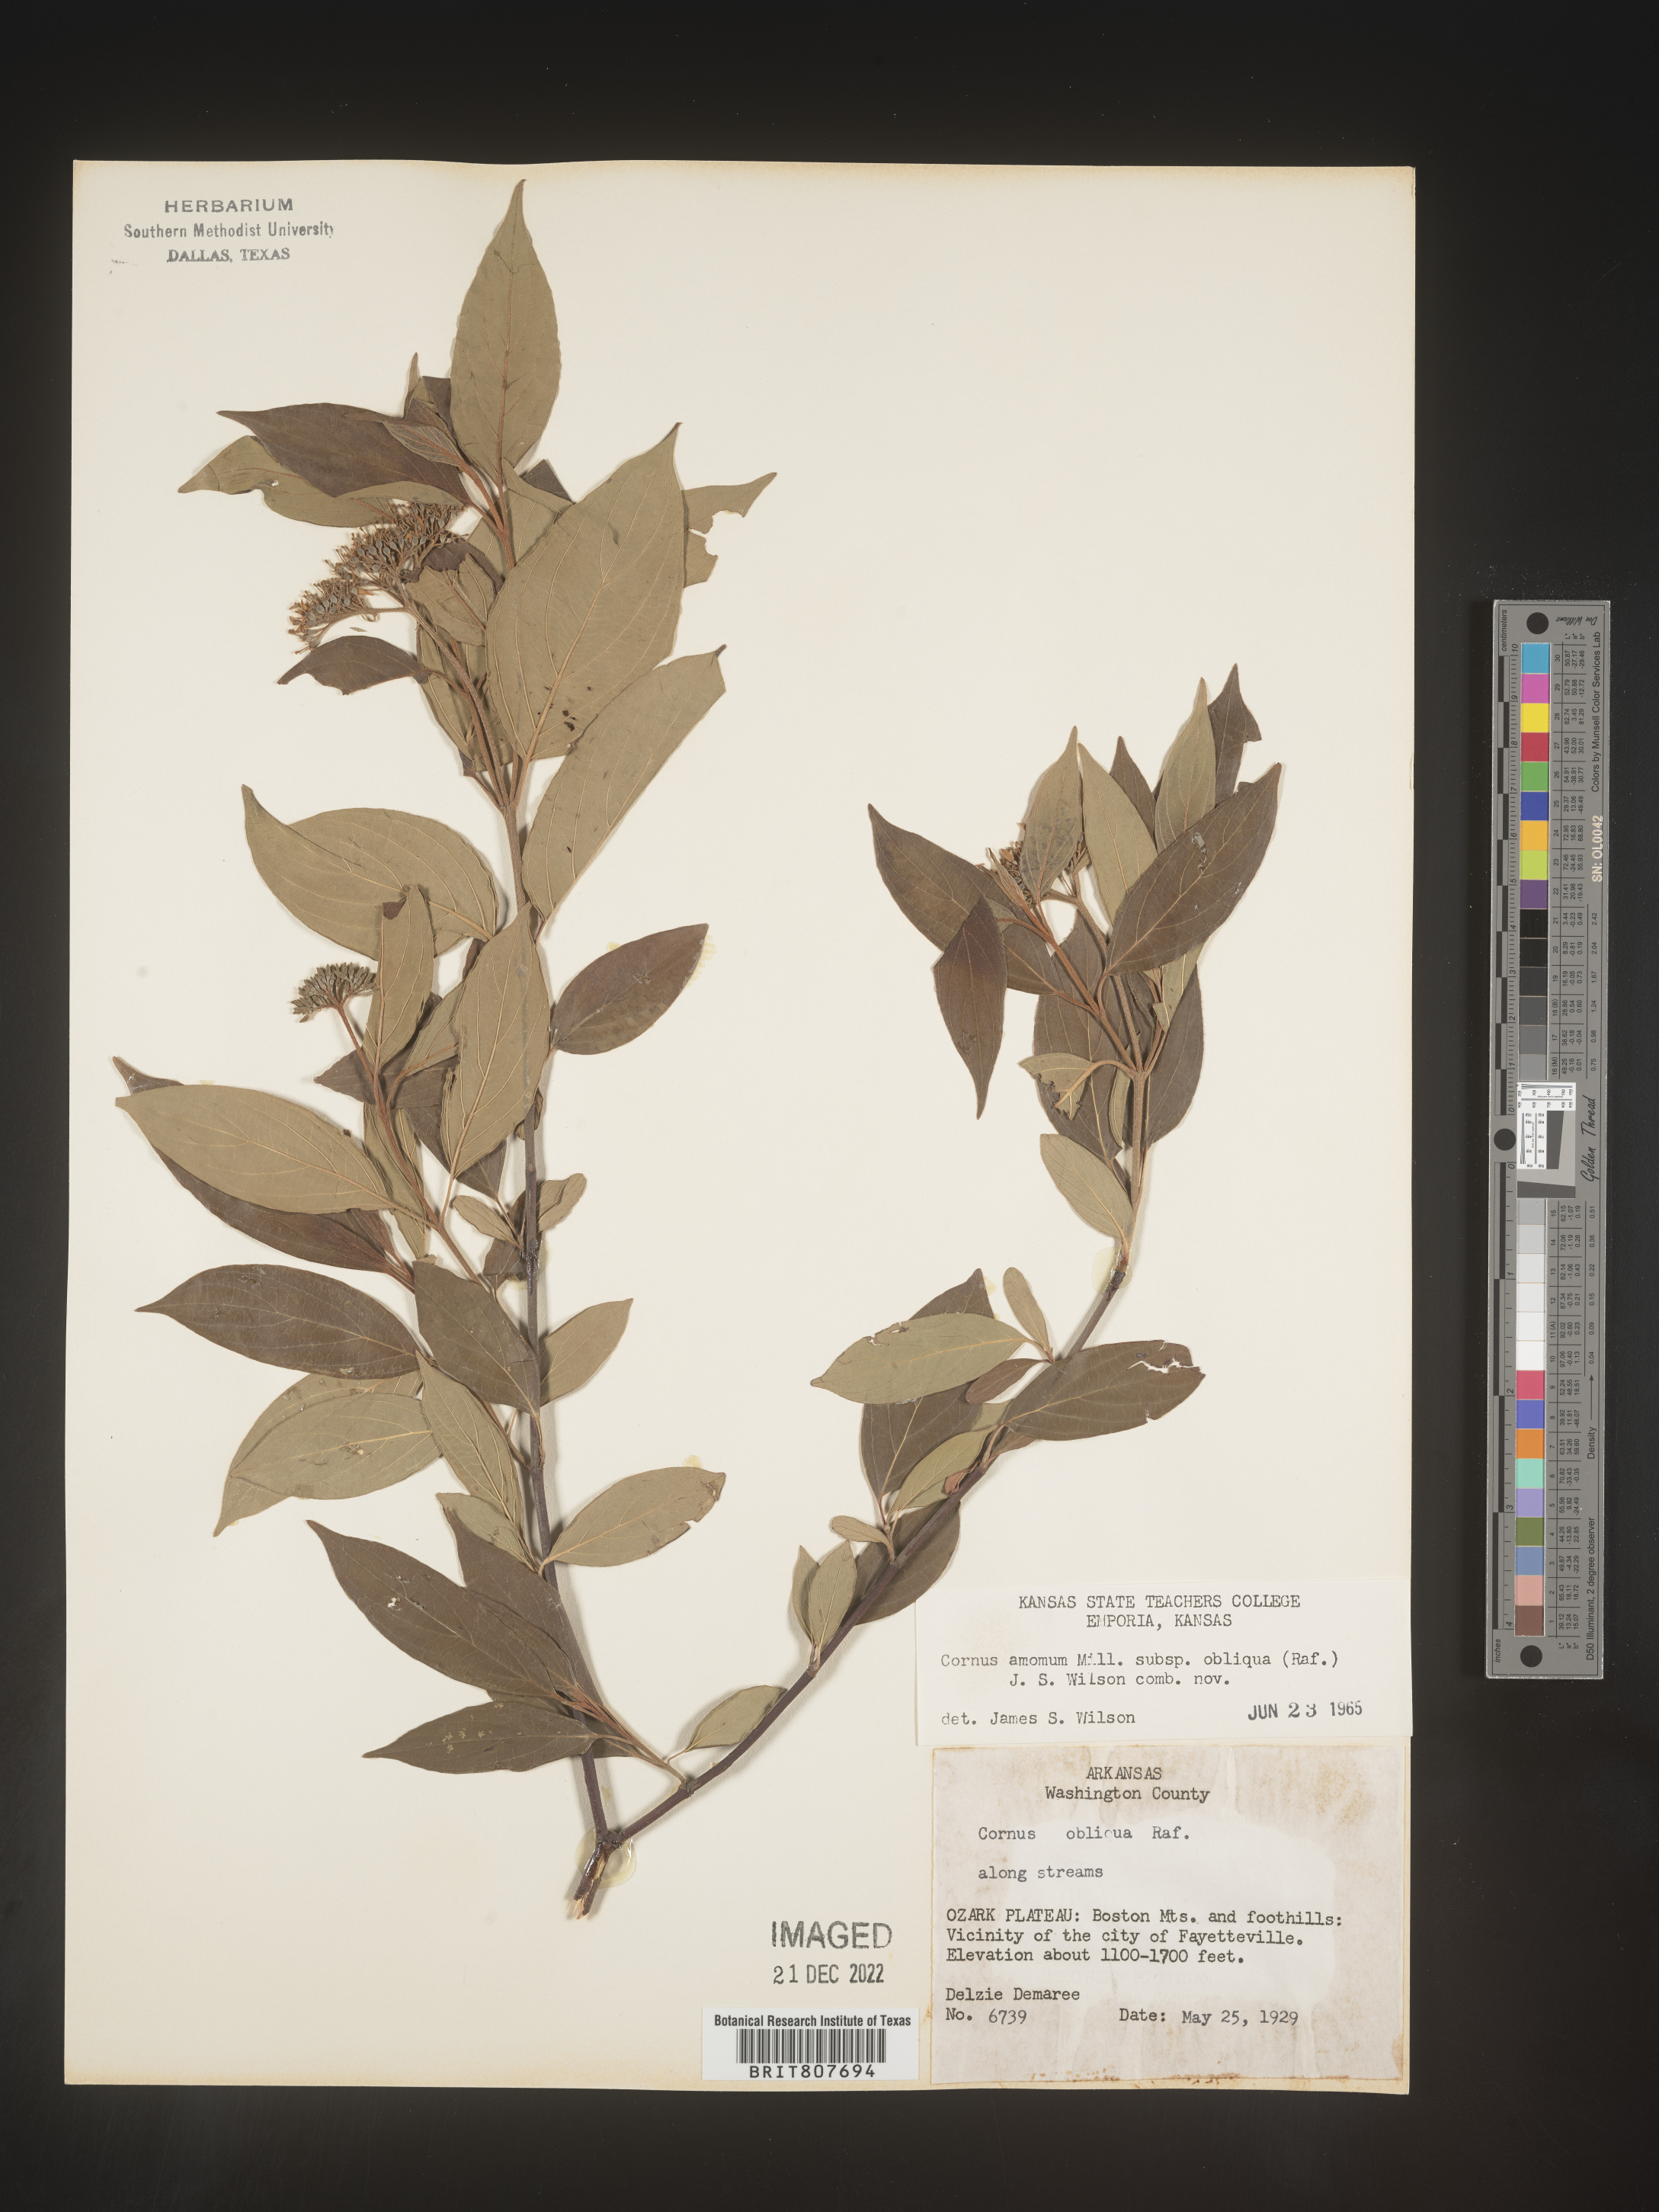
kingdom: Plantae
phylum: Tracheophyta
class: Magnoliopsida
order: Cornales
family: Cornaceae
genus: Cornus
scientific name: Cornus obliqua
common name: Pale dogwood
